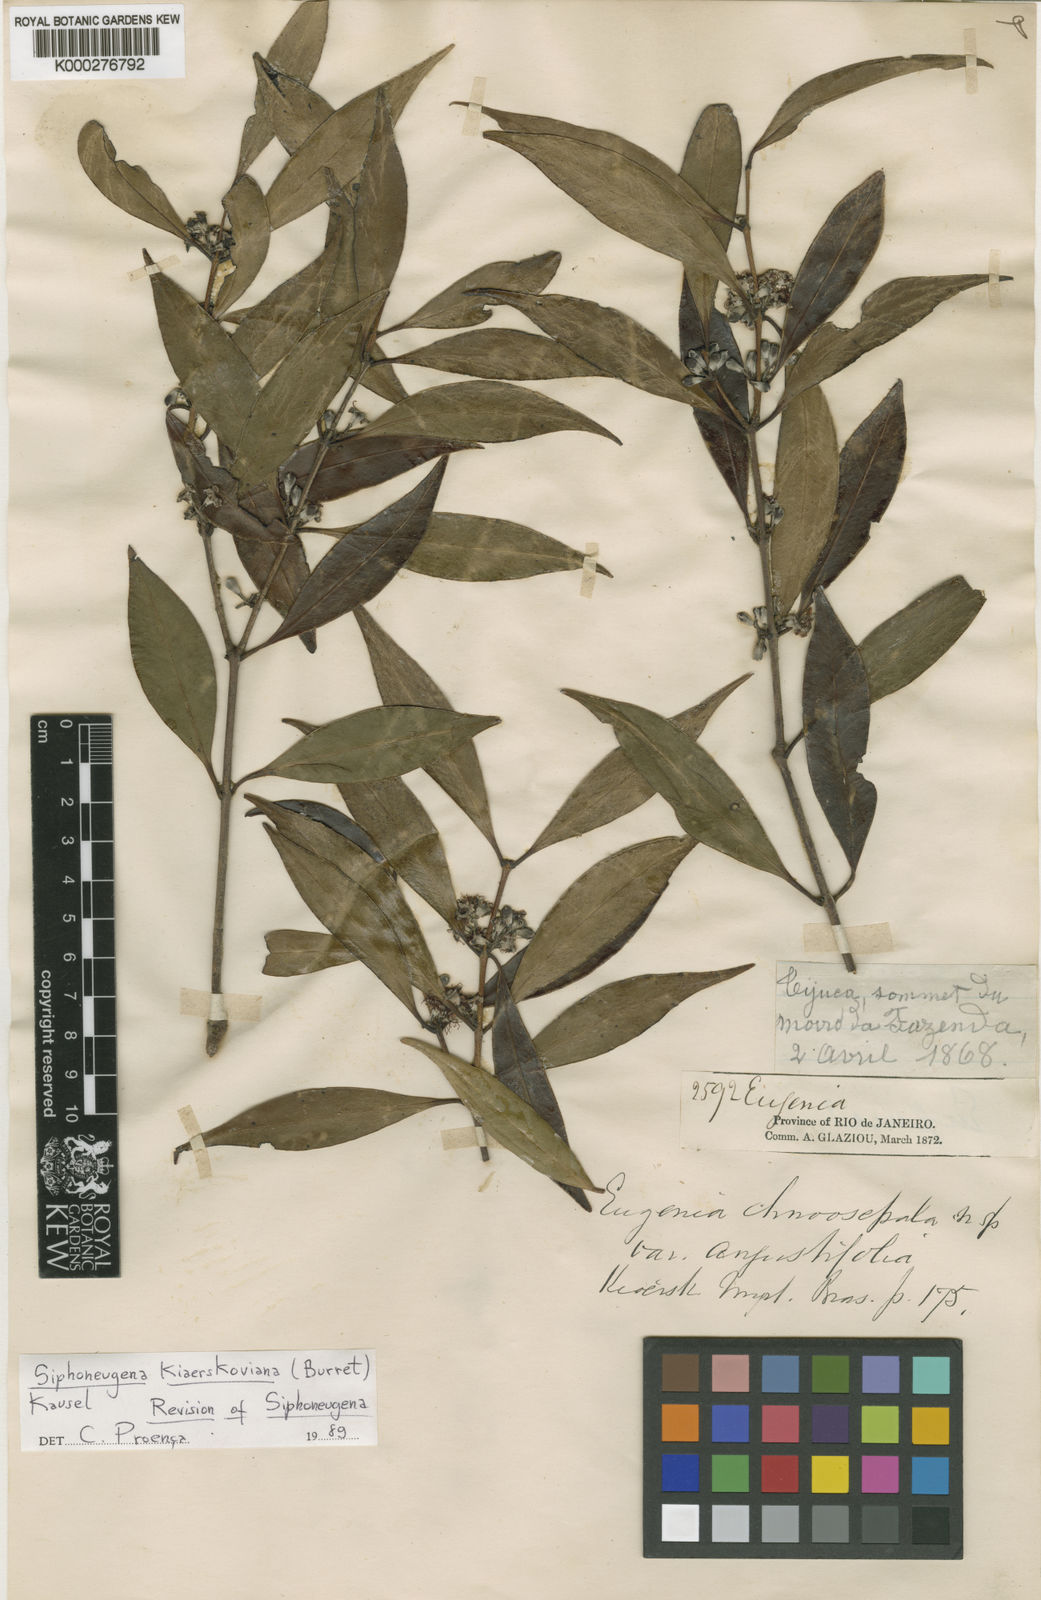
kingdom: Plantae
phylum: Tracheophyta
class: Magnoliopsida
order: Myrtales
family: Myrtaceae
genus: Siphoneugena
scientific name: Siphoneugena kiaerskoviana
